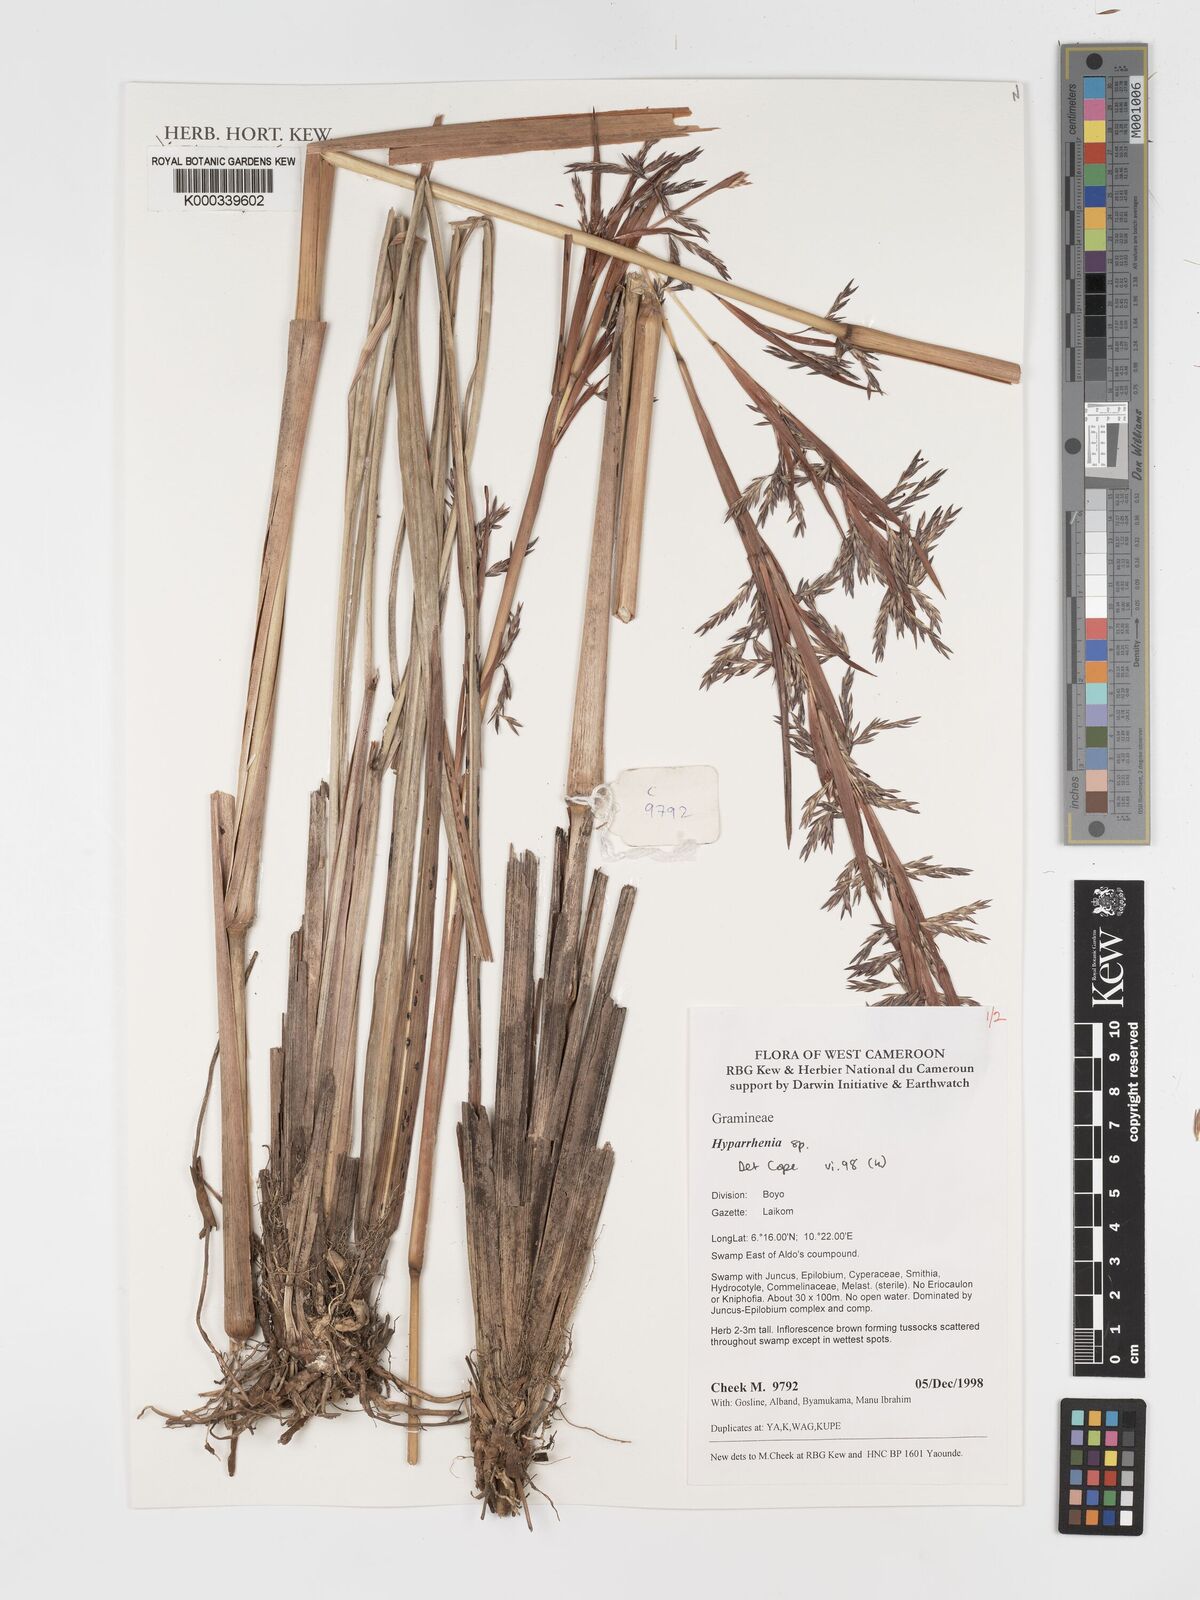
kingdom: Plantae
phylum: Tracheophyta
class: Liliopsida
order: Poales
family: Poaceae
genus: Hyparrhenia
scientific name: Hyparrhenia
